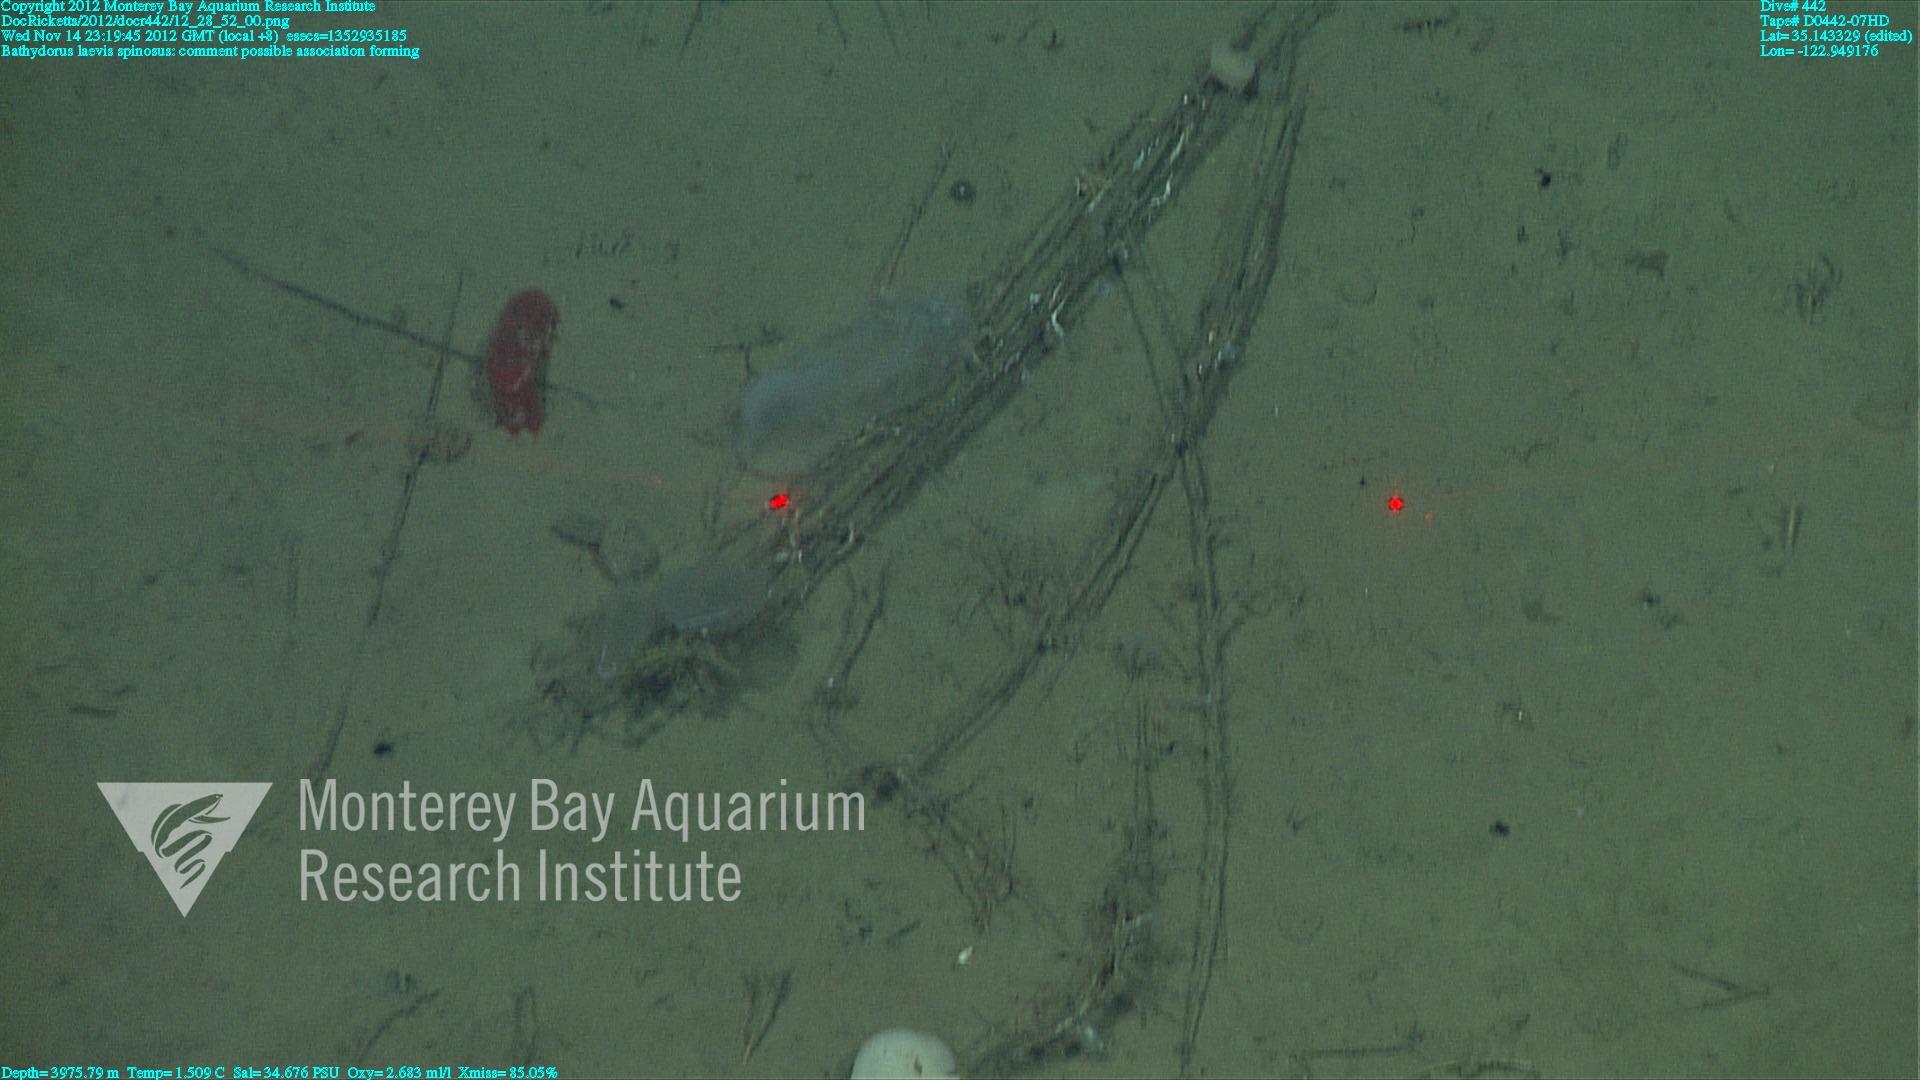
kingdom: Animalia
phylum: Porifera
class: Hexactinellida
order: Lyssacinosida
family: Rossellidae
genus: Bathydorus
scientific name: Bathydorus spinosus
